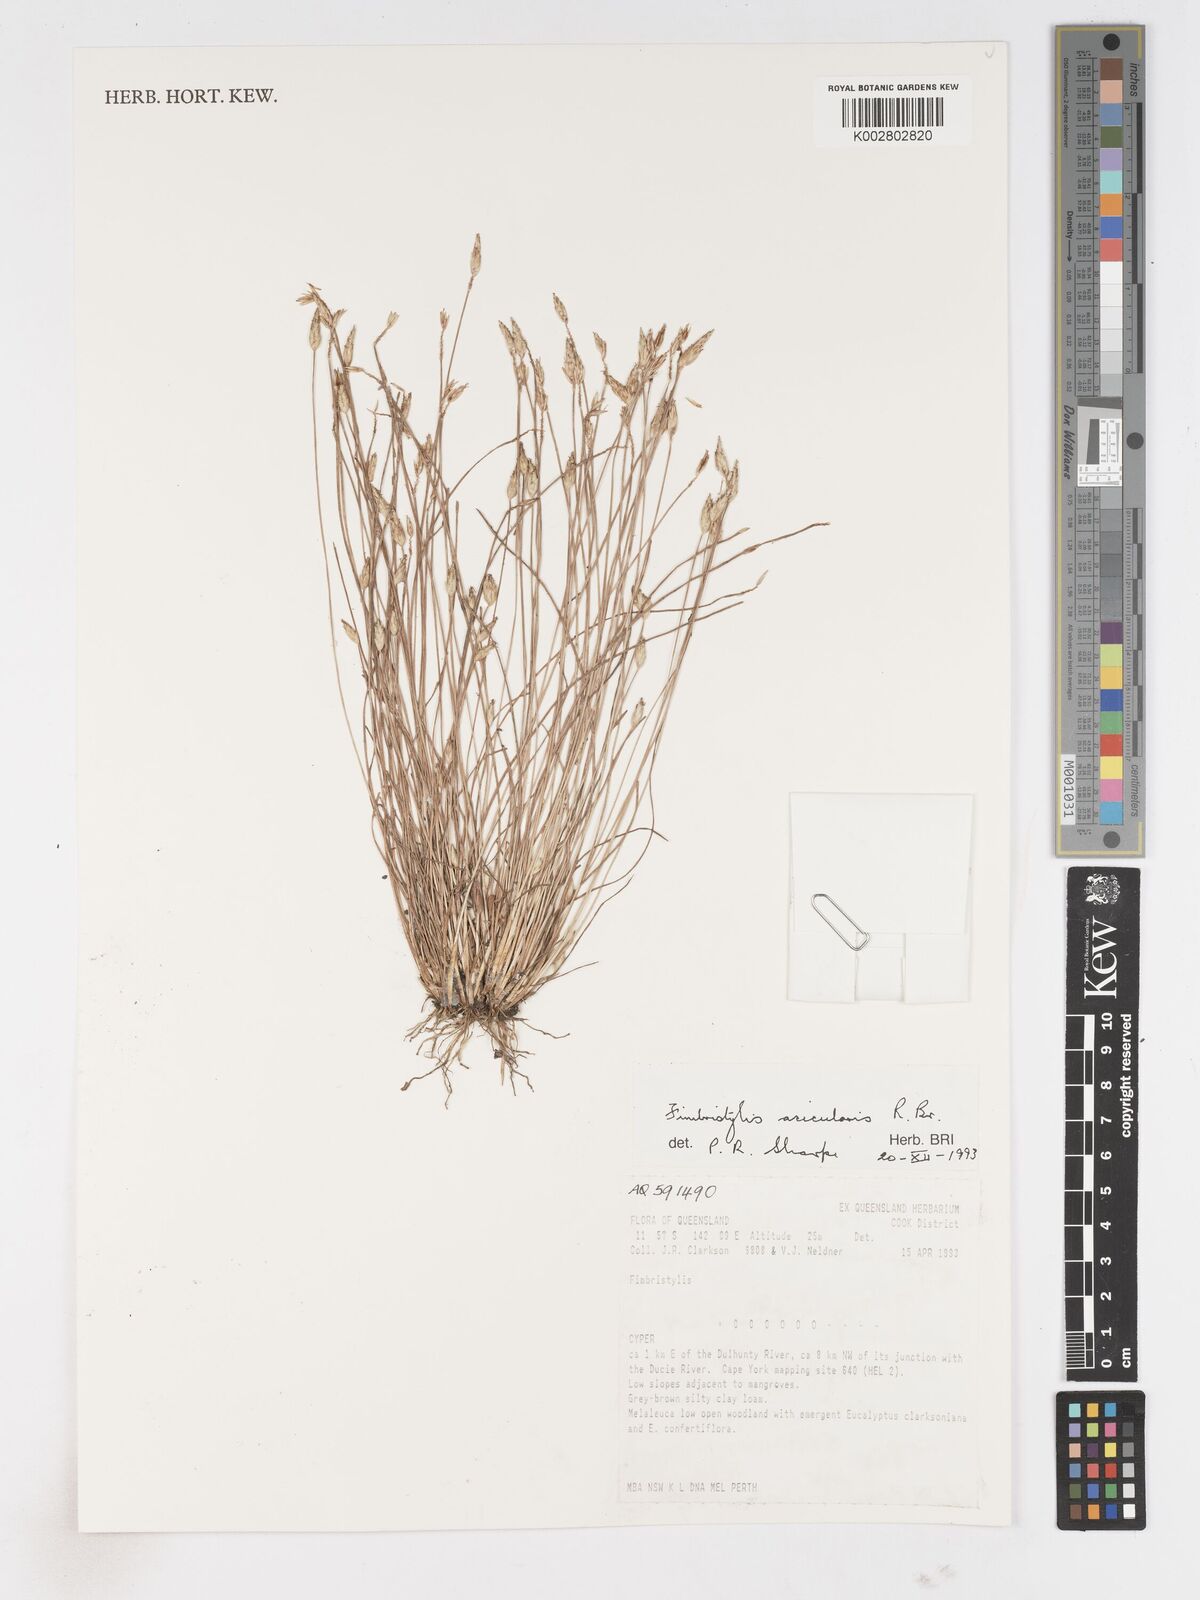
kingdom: Plantae
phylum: Tracheophyta
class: Liliopsida
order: Poales
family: Cyperaceae
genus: Fimbristylis
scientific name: Fimbristylis acicularis
